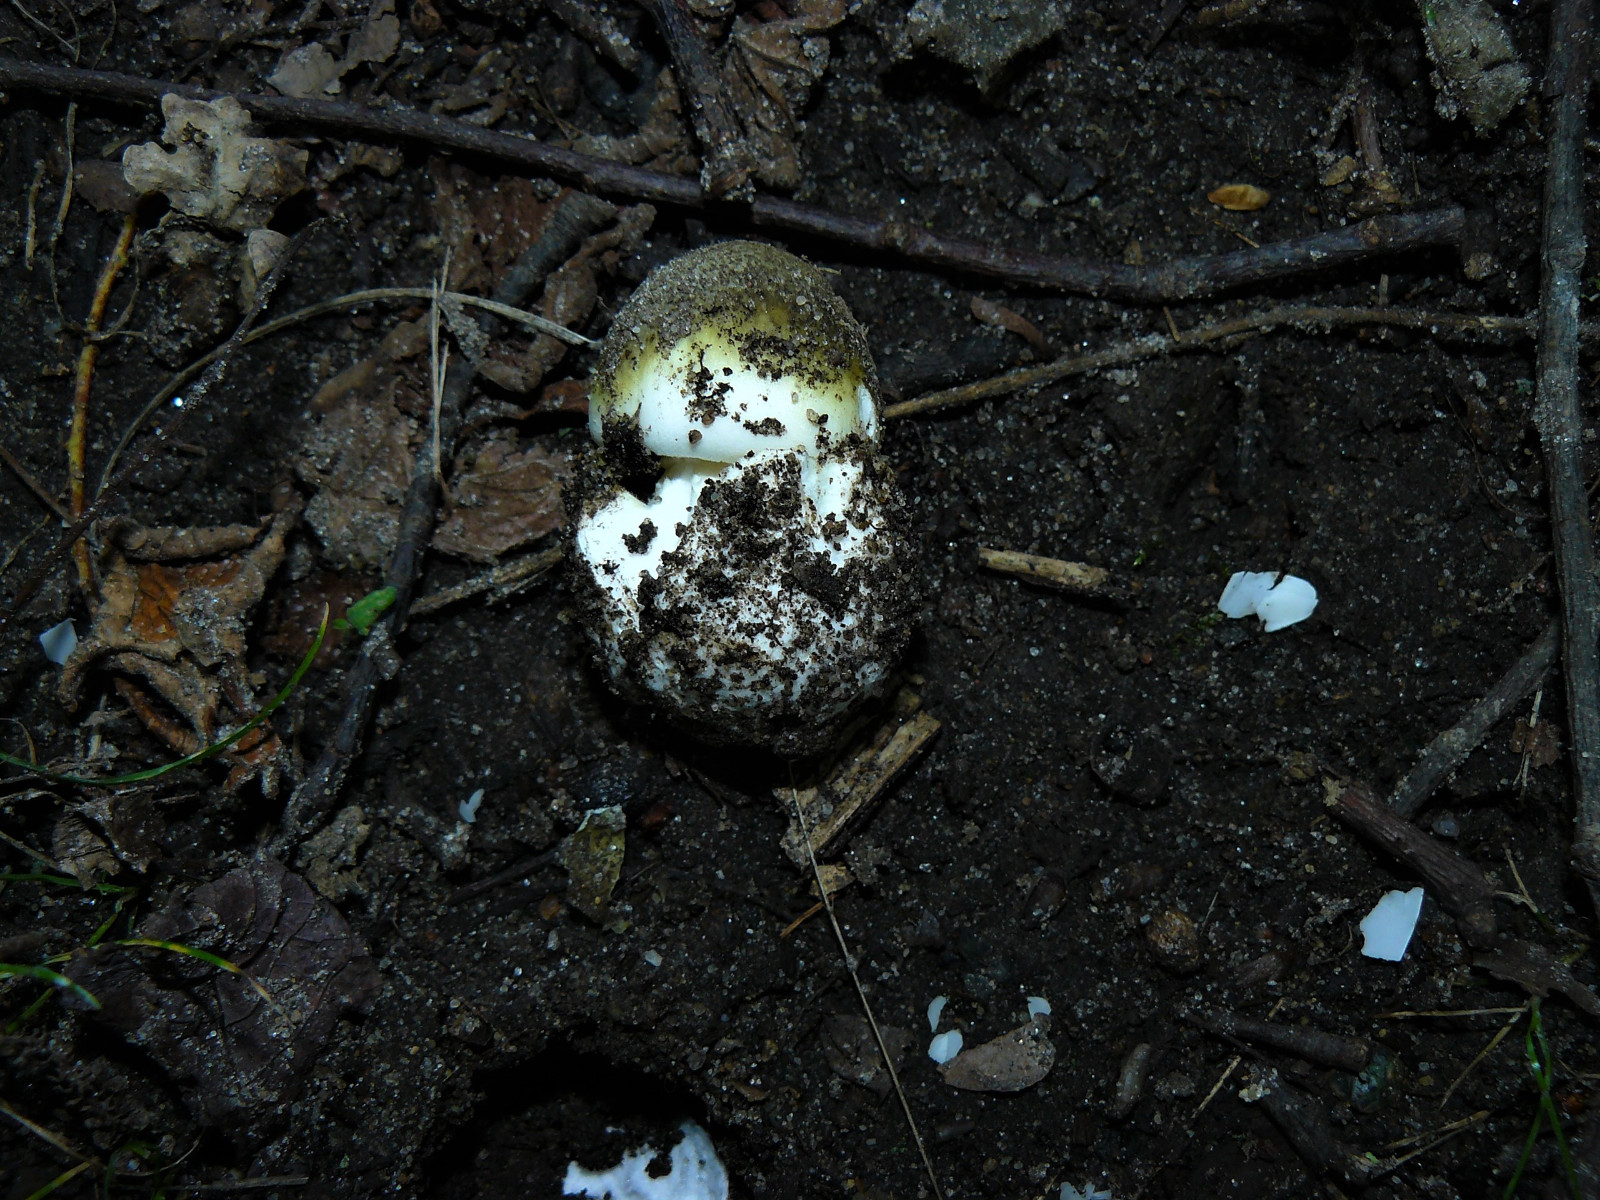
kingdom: Fungi
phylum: Basidiomycota
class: Agaricomycetes
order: Agaricales
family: Amanitaceae
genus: Amanita
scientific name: Amanita phalloides
